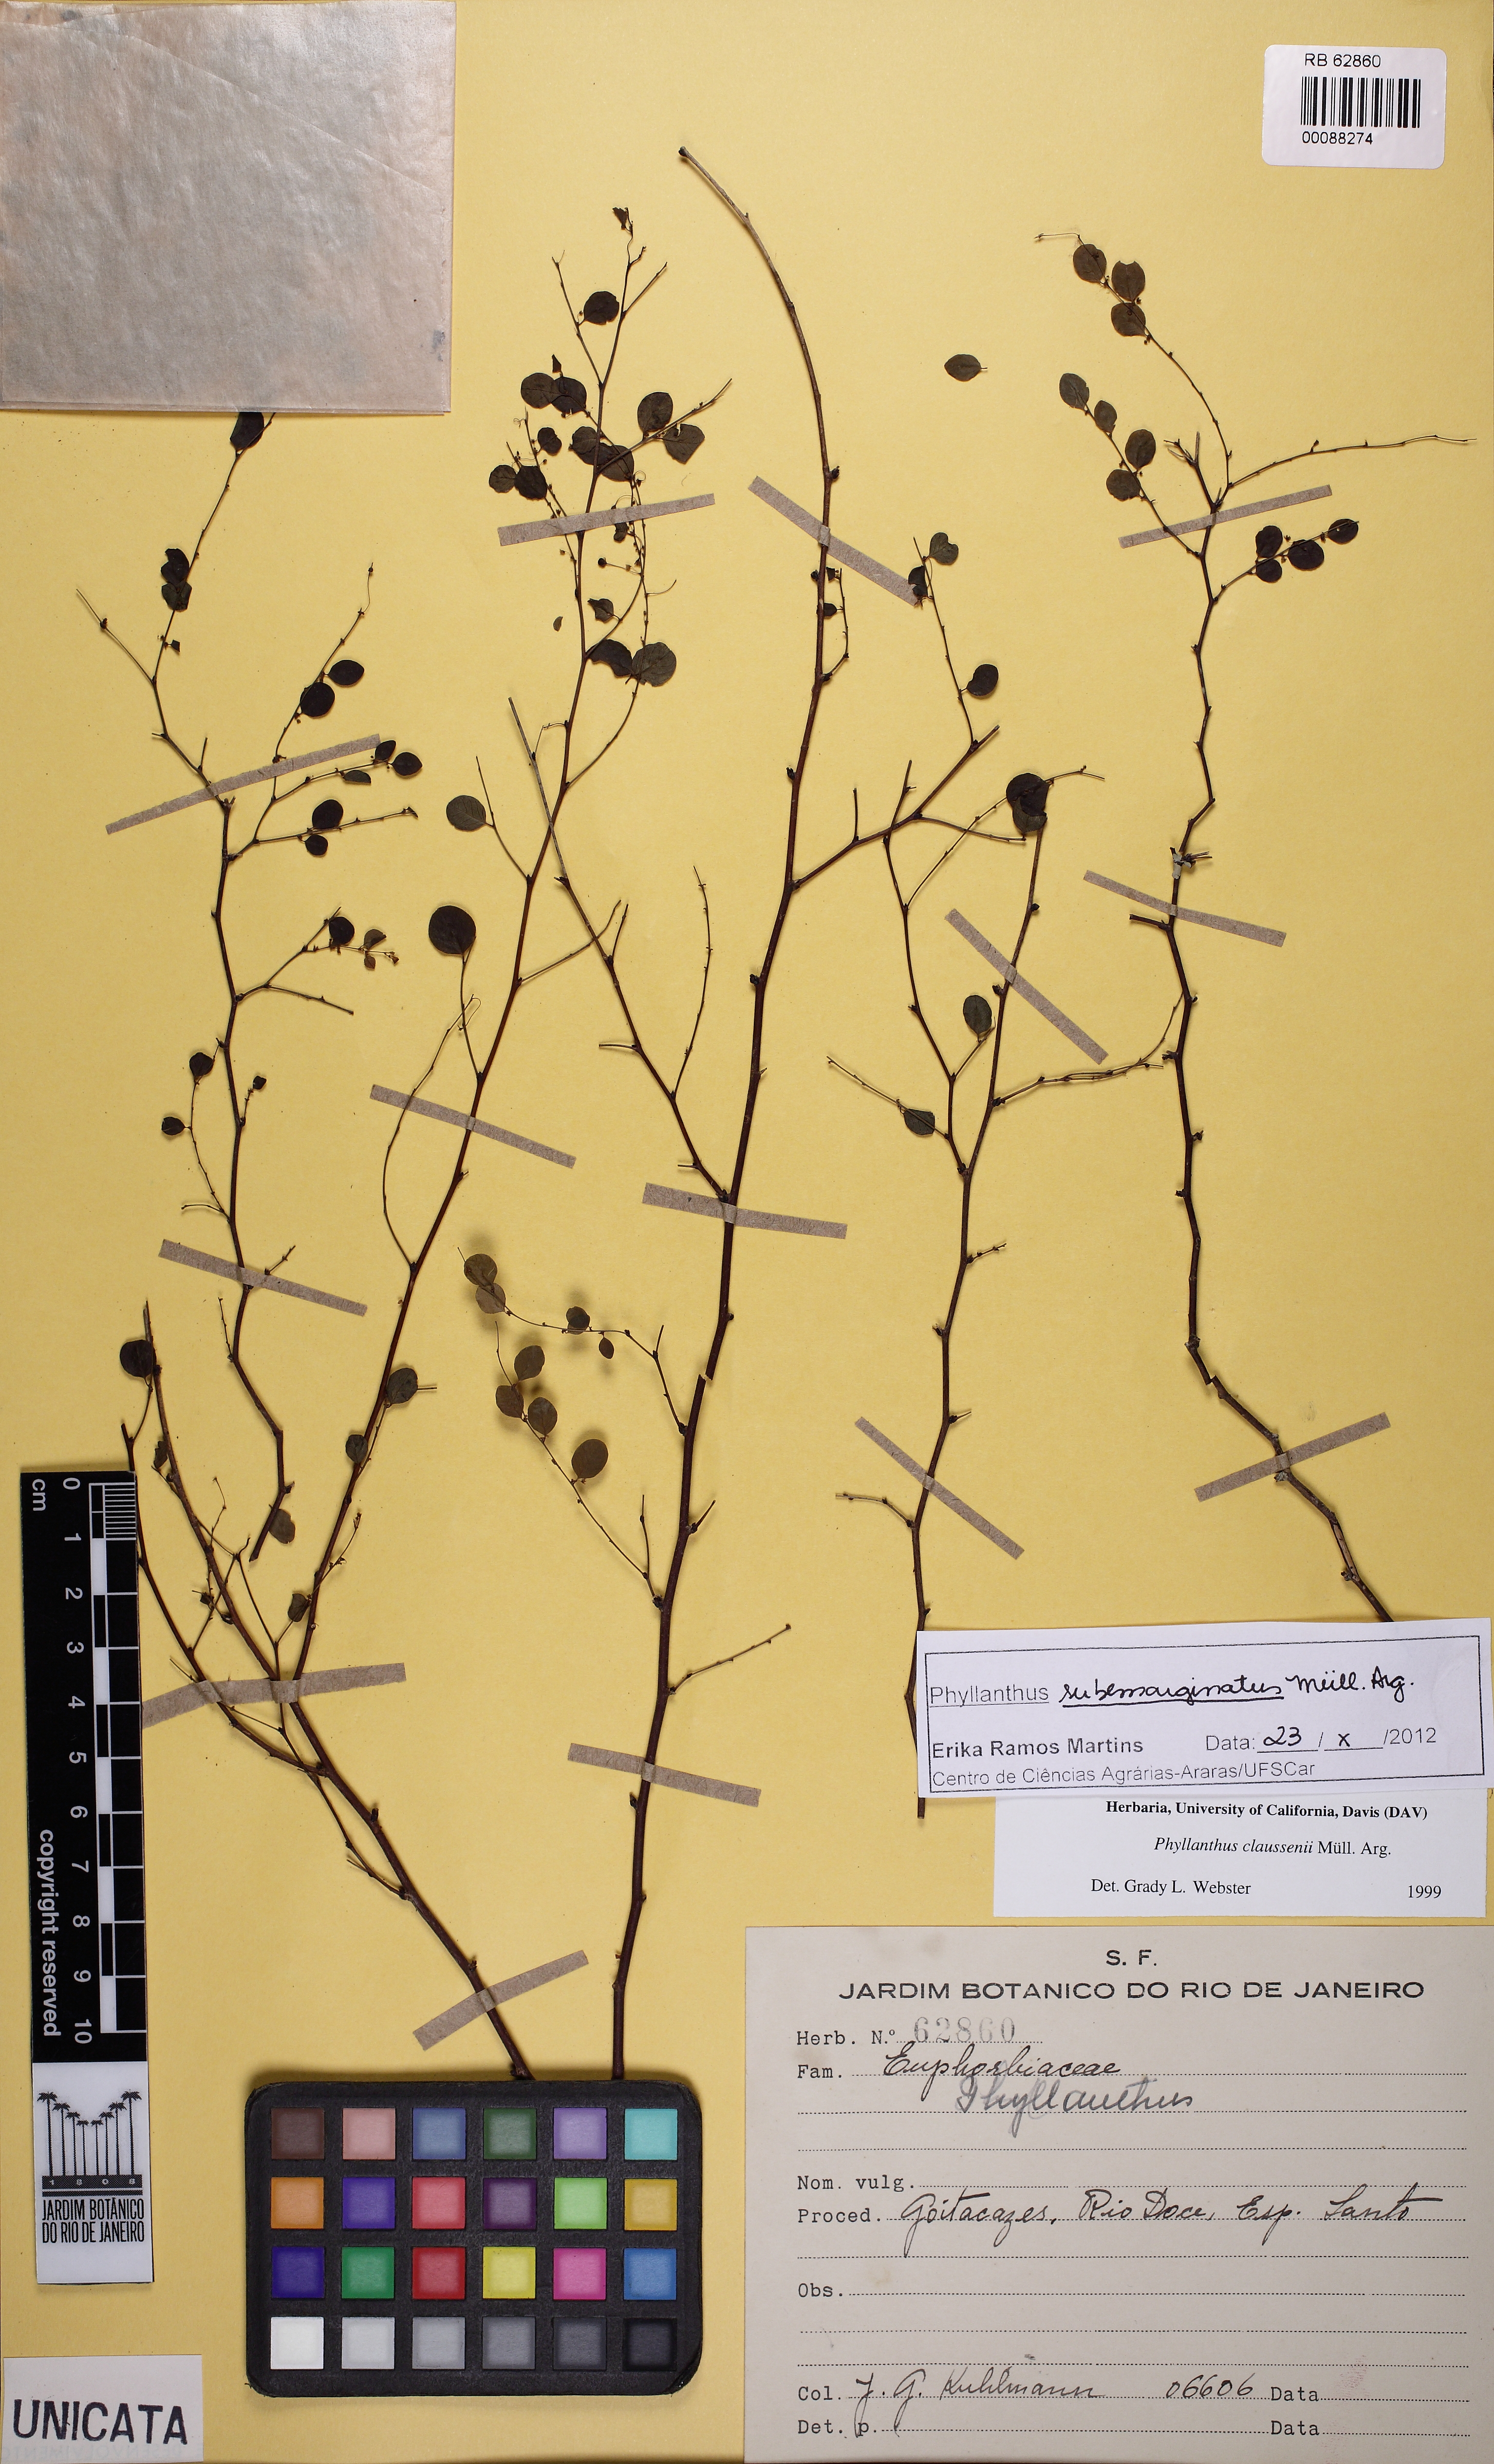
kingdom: Plantae
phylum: Tracheophyta
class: Magnoliopsida
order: Malpighiales
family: Phyllanthaceae
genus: Phyllanthus
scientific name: Phyllanthus claussenii
